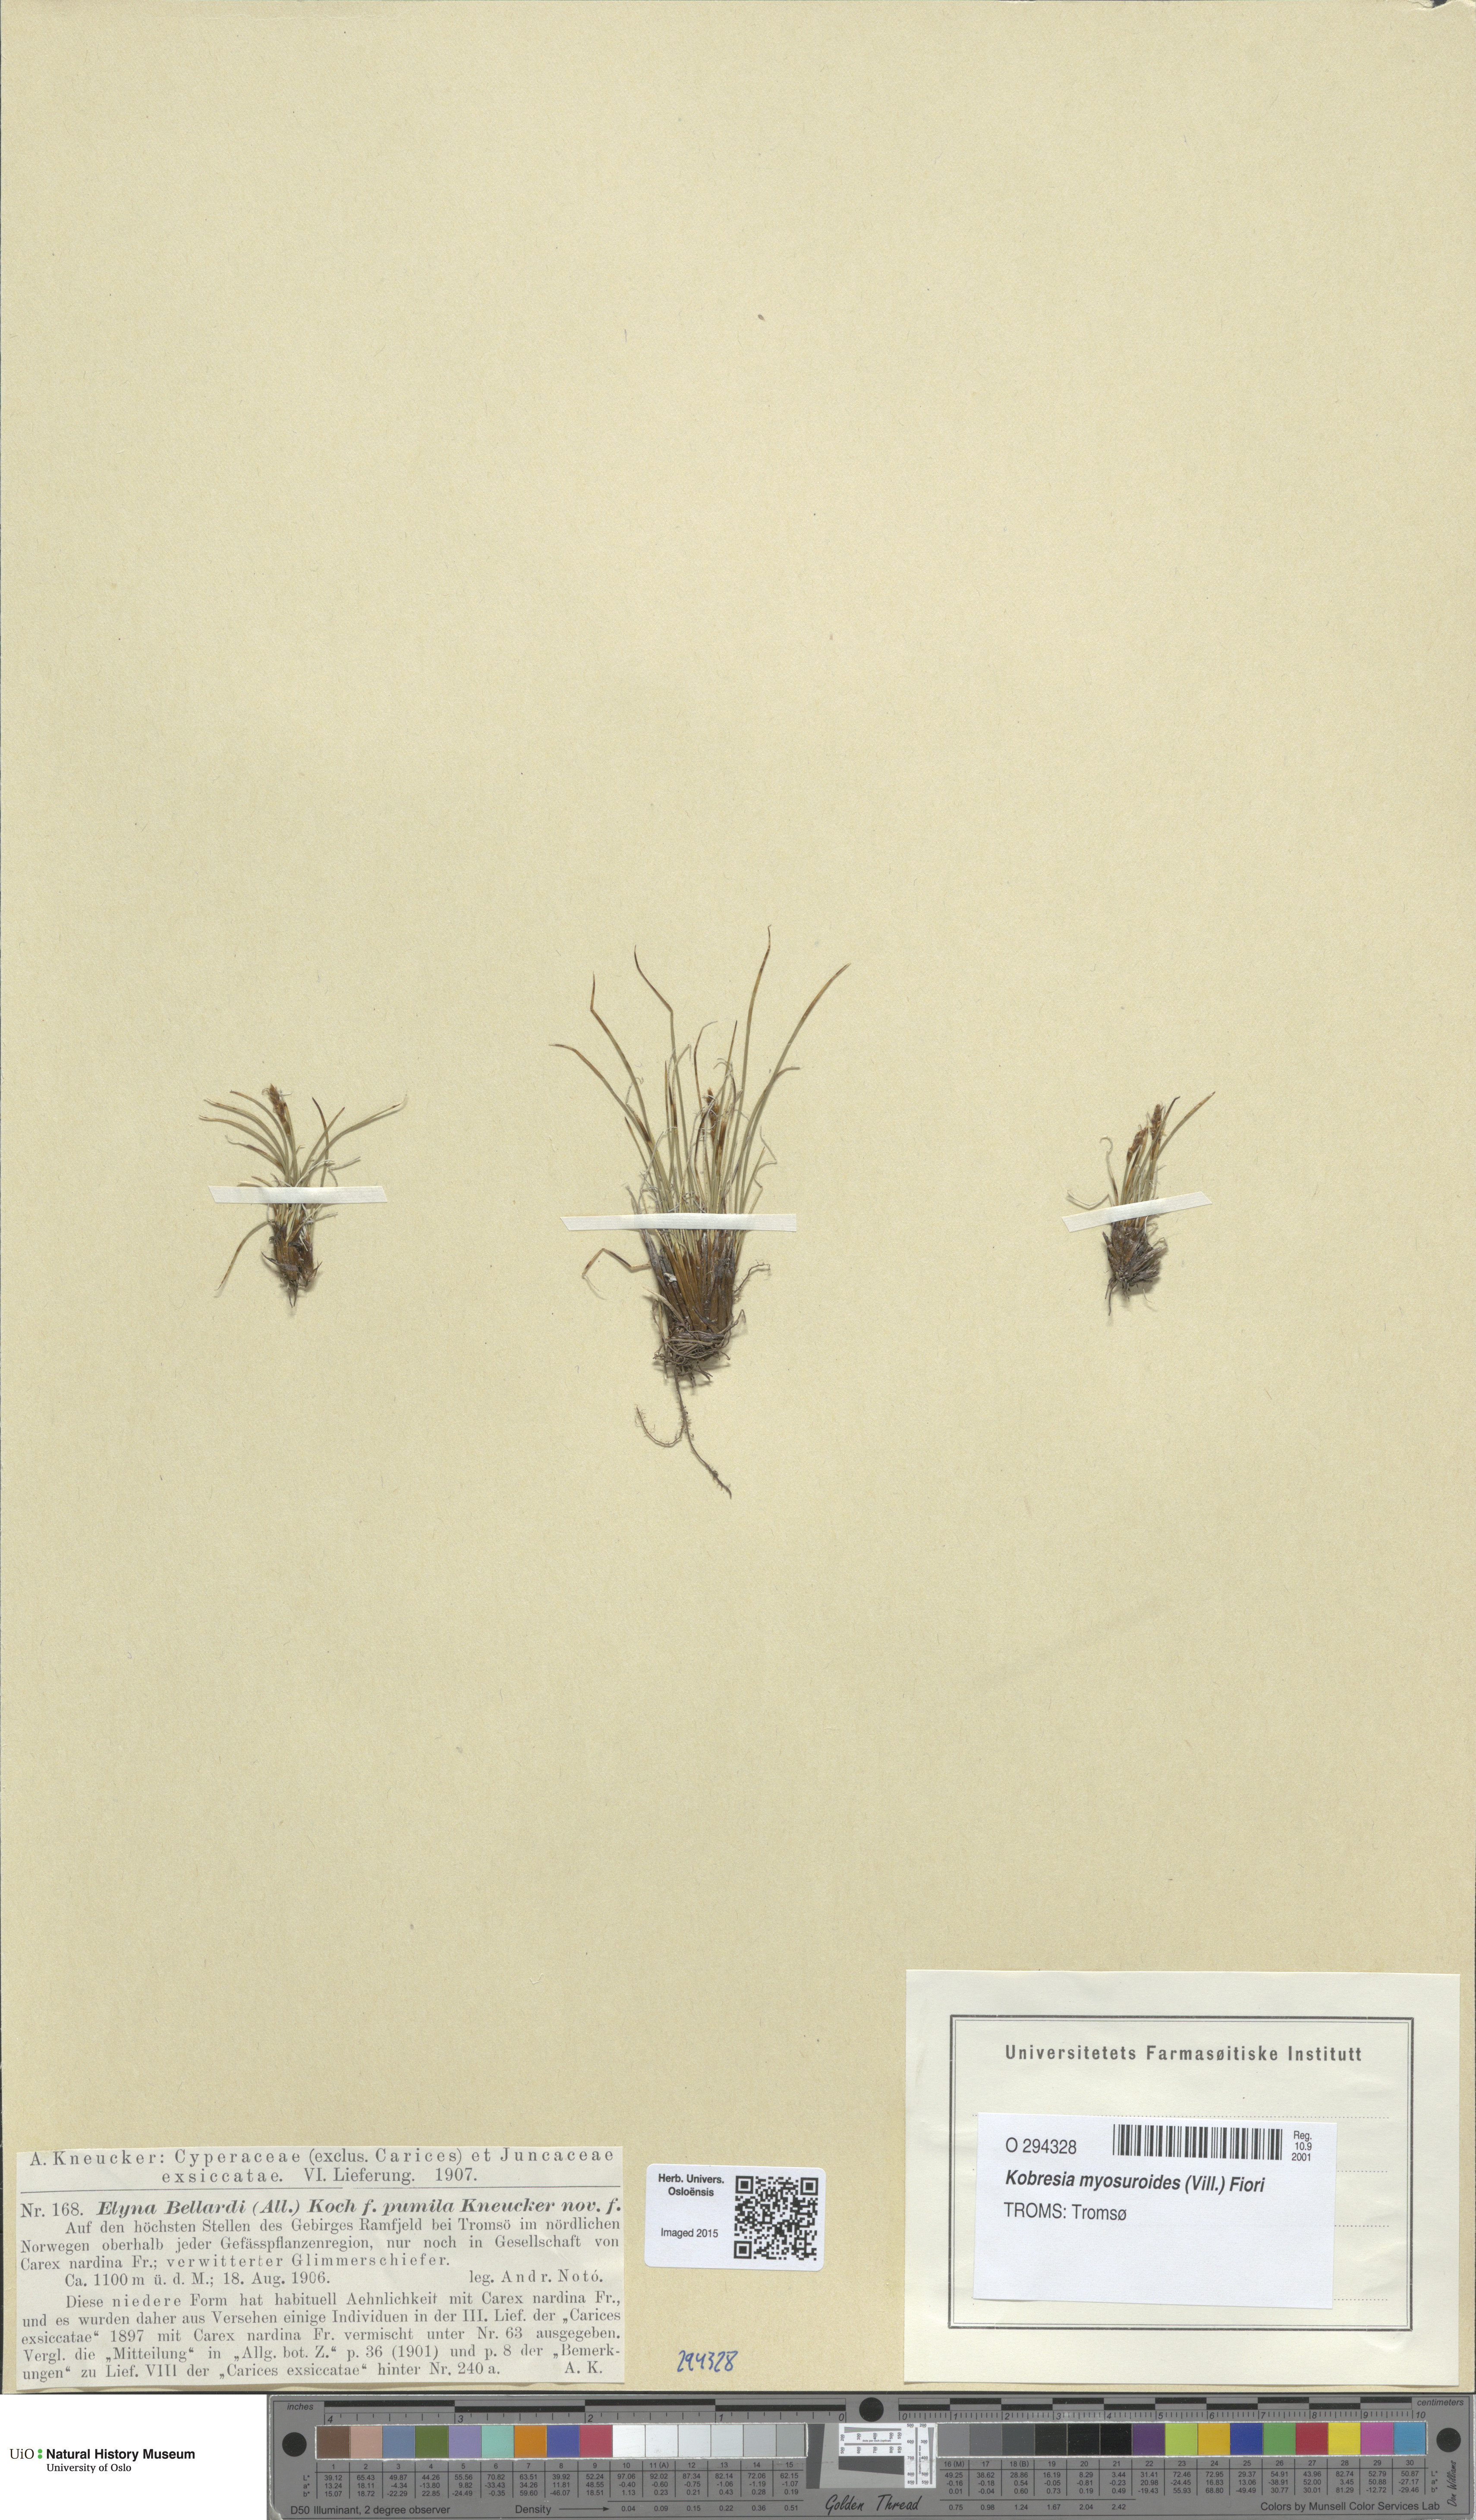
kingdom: Plantae
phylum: Tracheophyta
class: Liliopsida
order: Poales
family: Cyperaceae
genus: Carex
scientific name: Carex myosuroides
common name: Bellard's bog sedge
